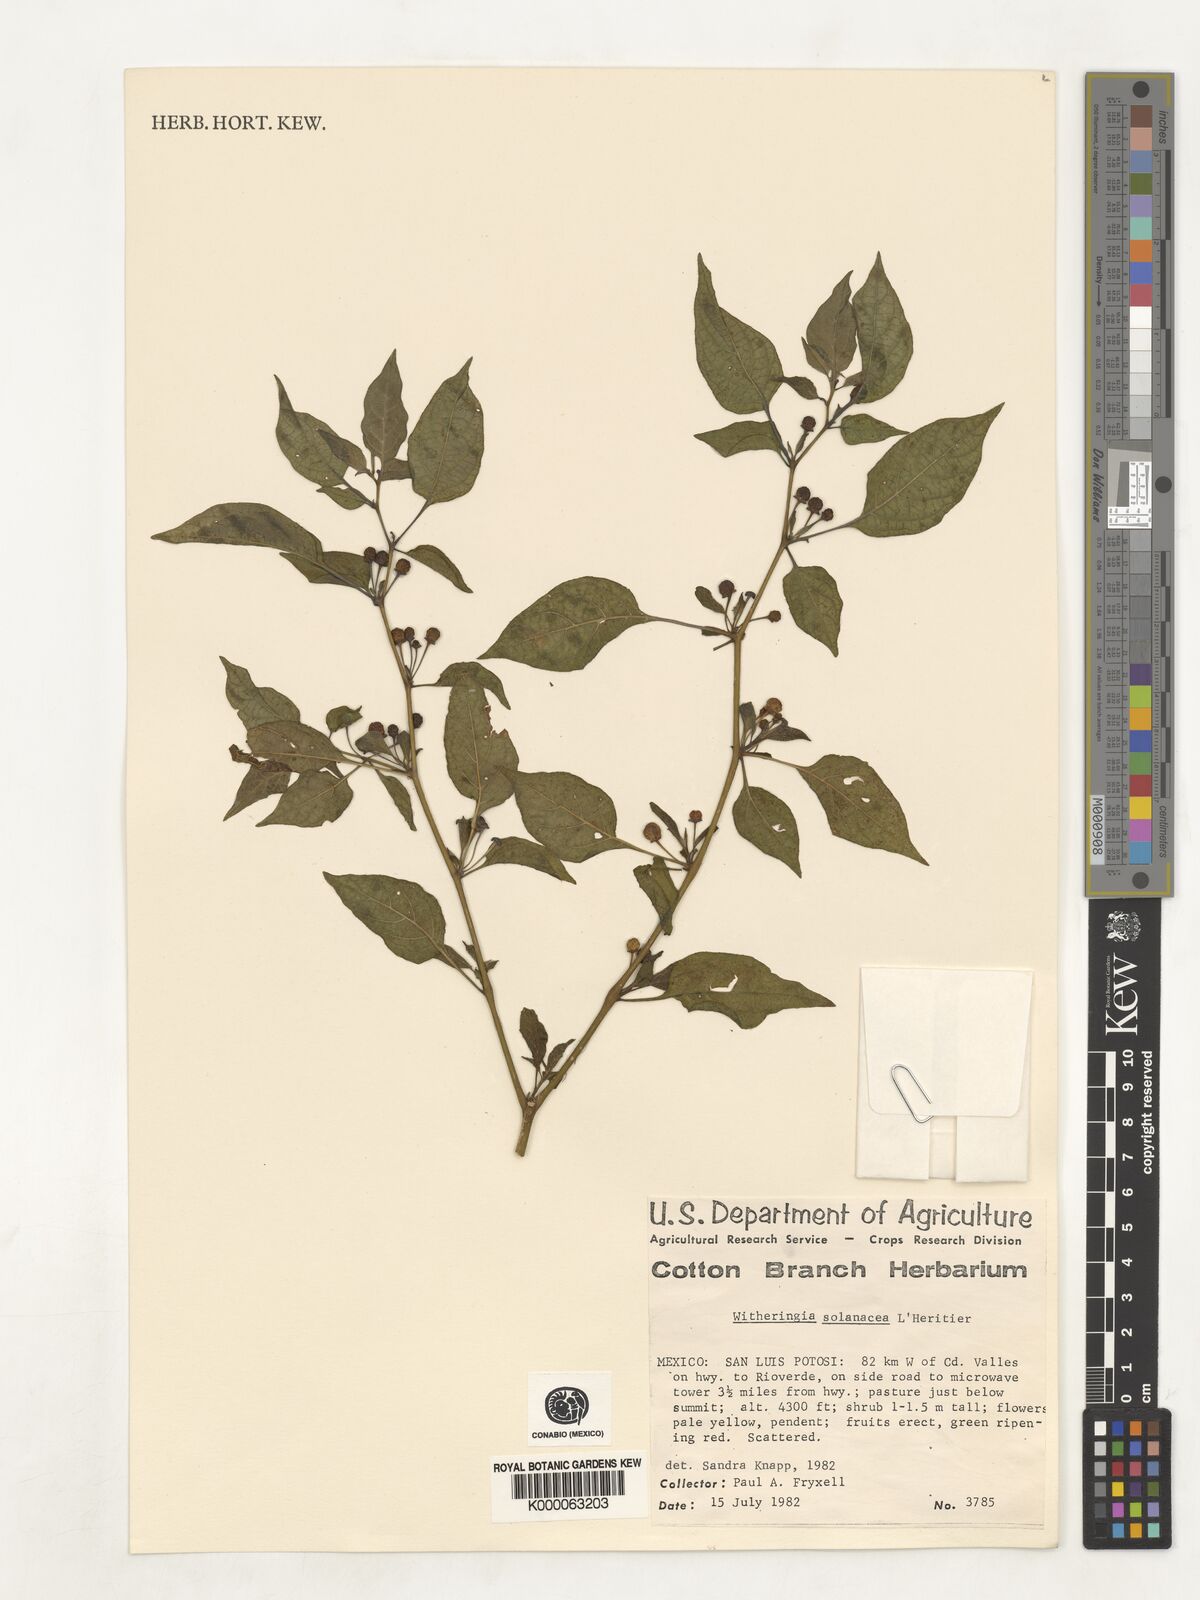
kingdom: Plantae
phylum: Tracheophyta
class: Magnoliopsida
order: Solanales
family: Solanaceae
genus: Witheringia
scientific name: Witheringia
